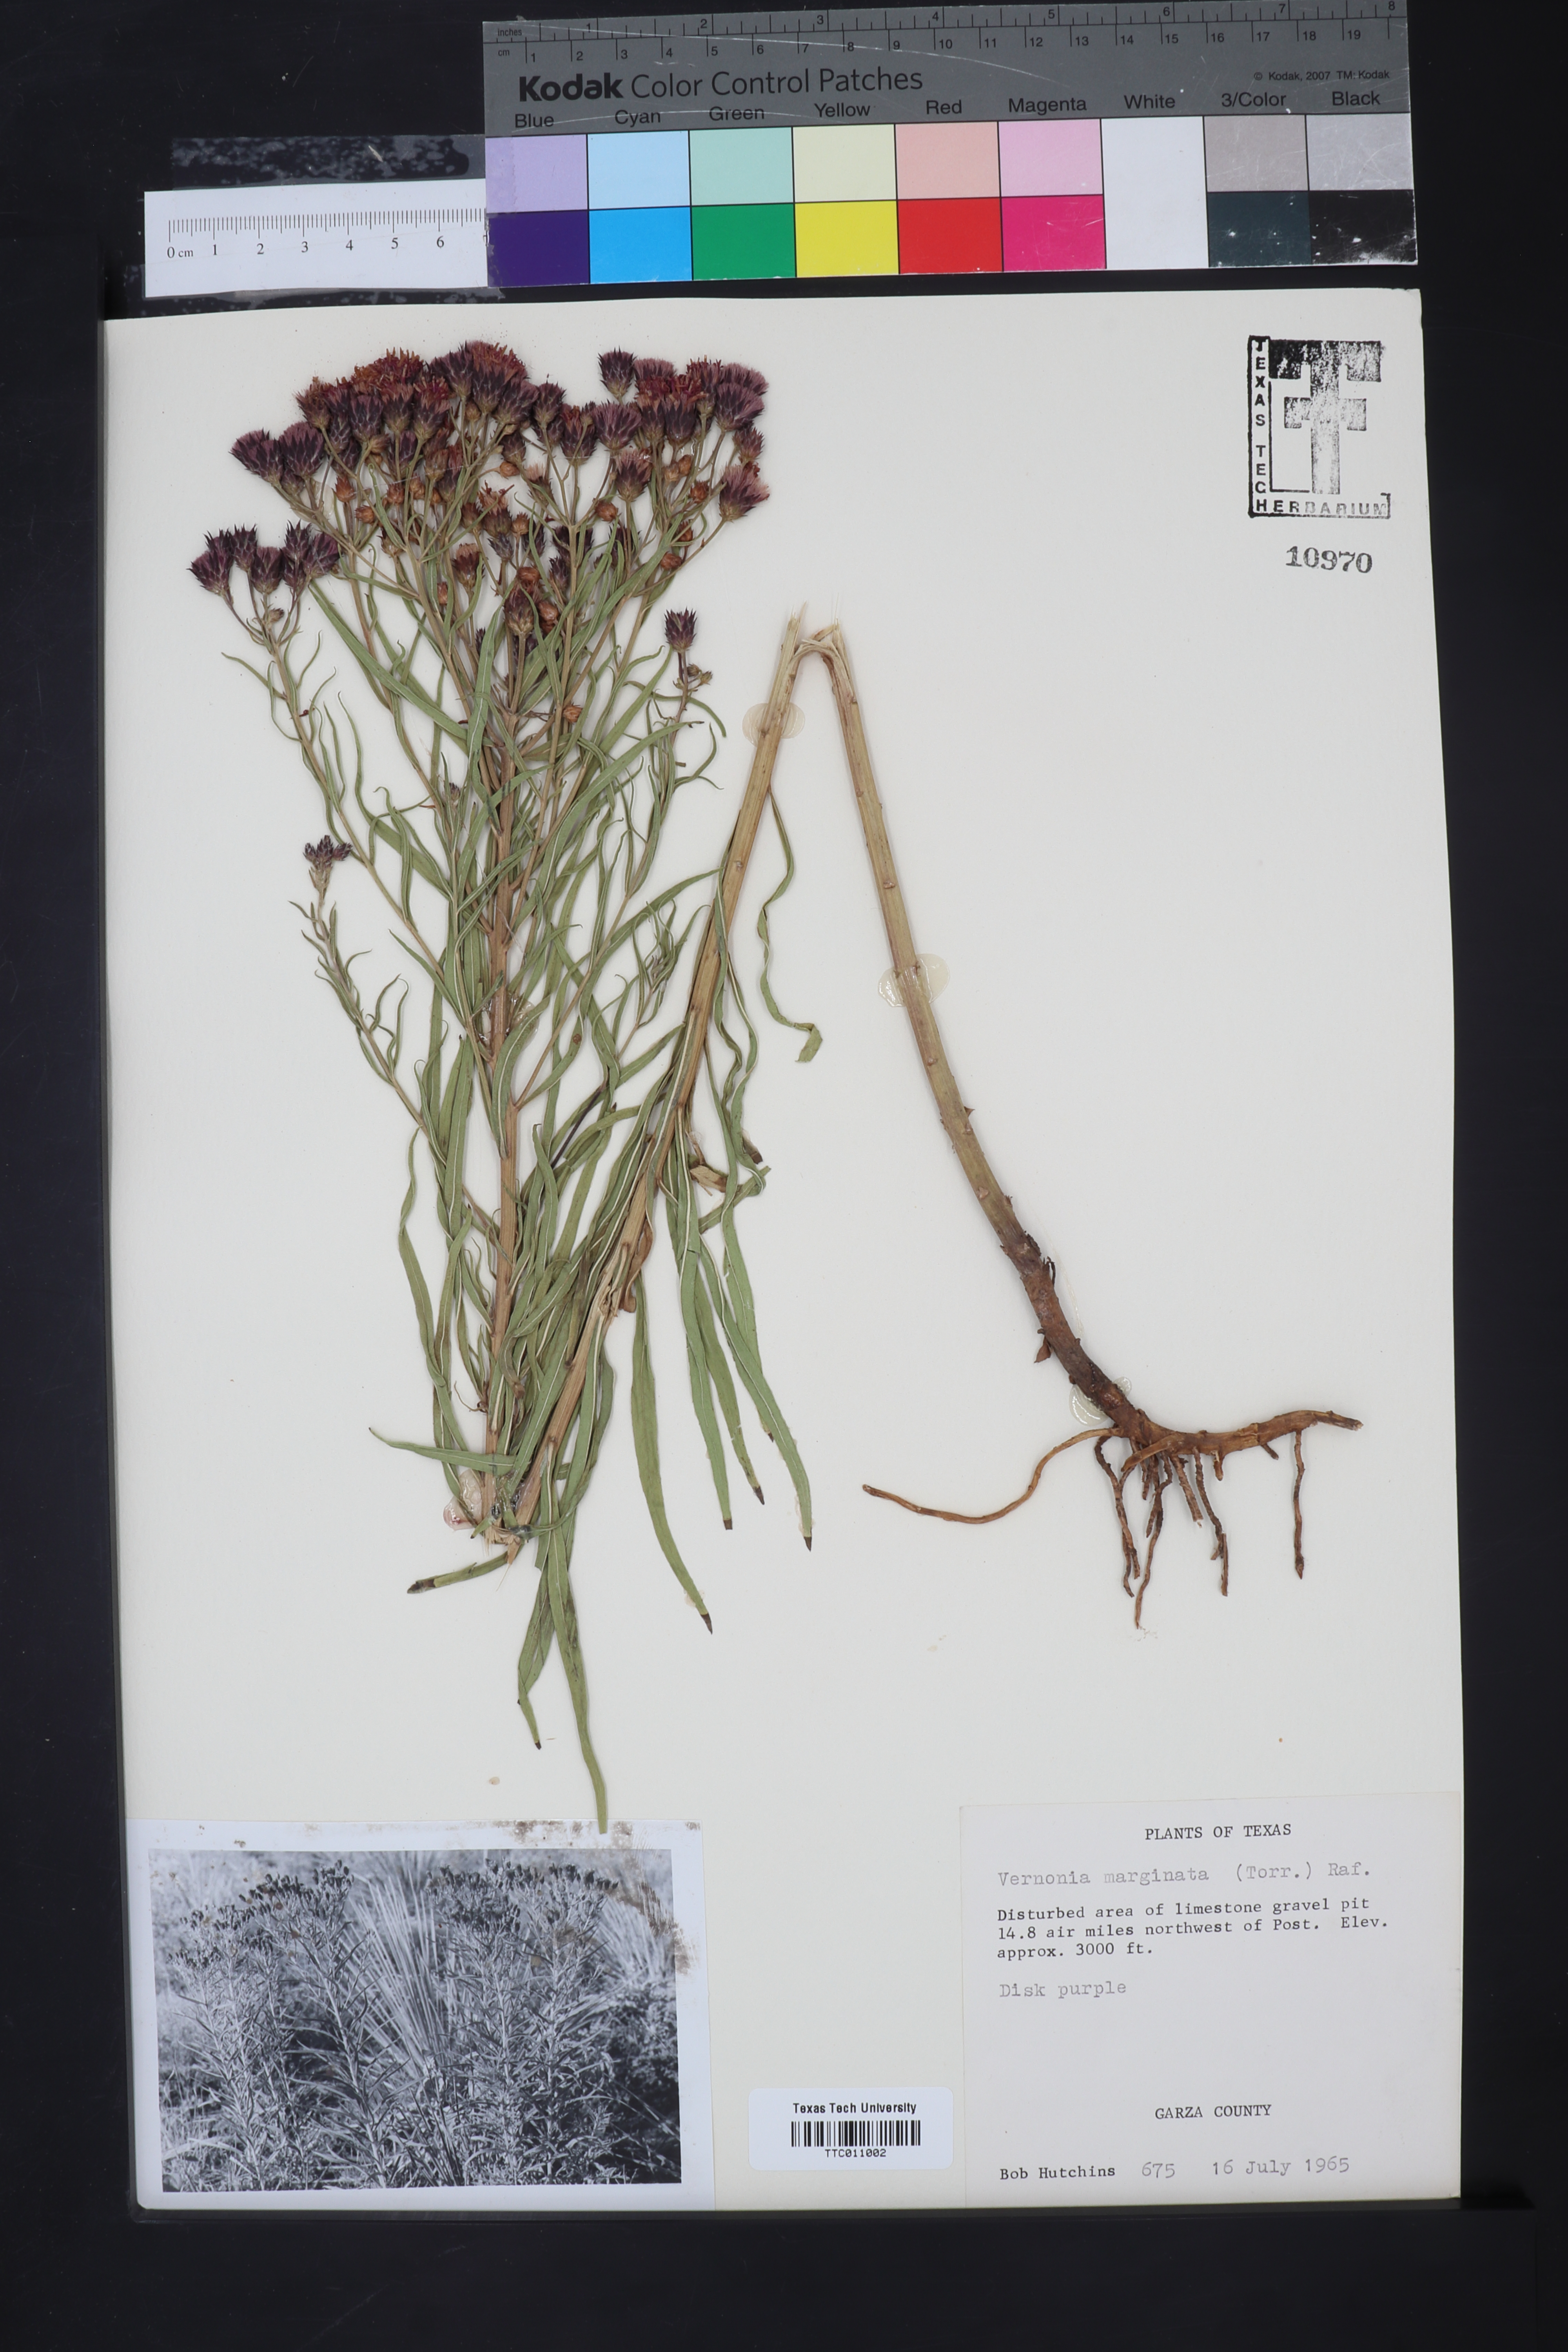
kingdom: Plantae
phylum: Tracheophyta
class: Magnoliopsida
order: Asterales
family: Asteraceae
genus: Vernonia
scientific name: Vernonia marginata
